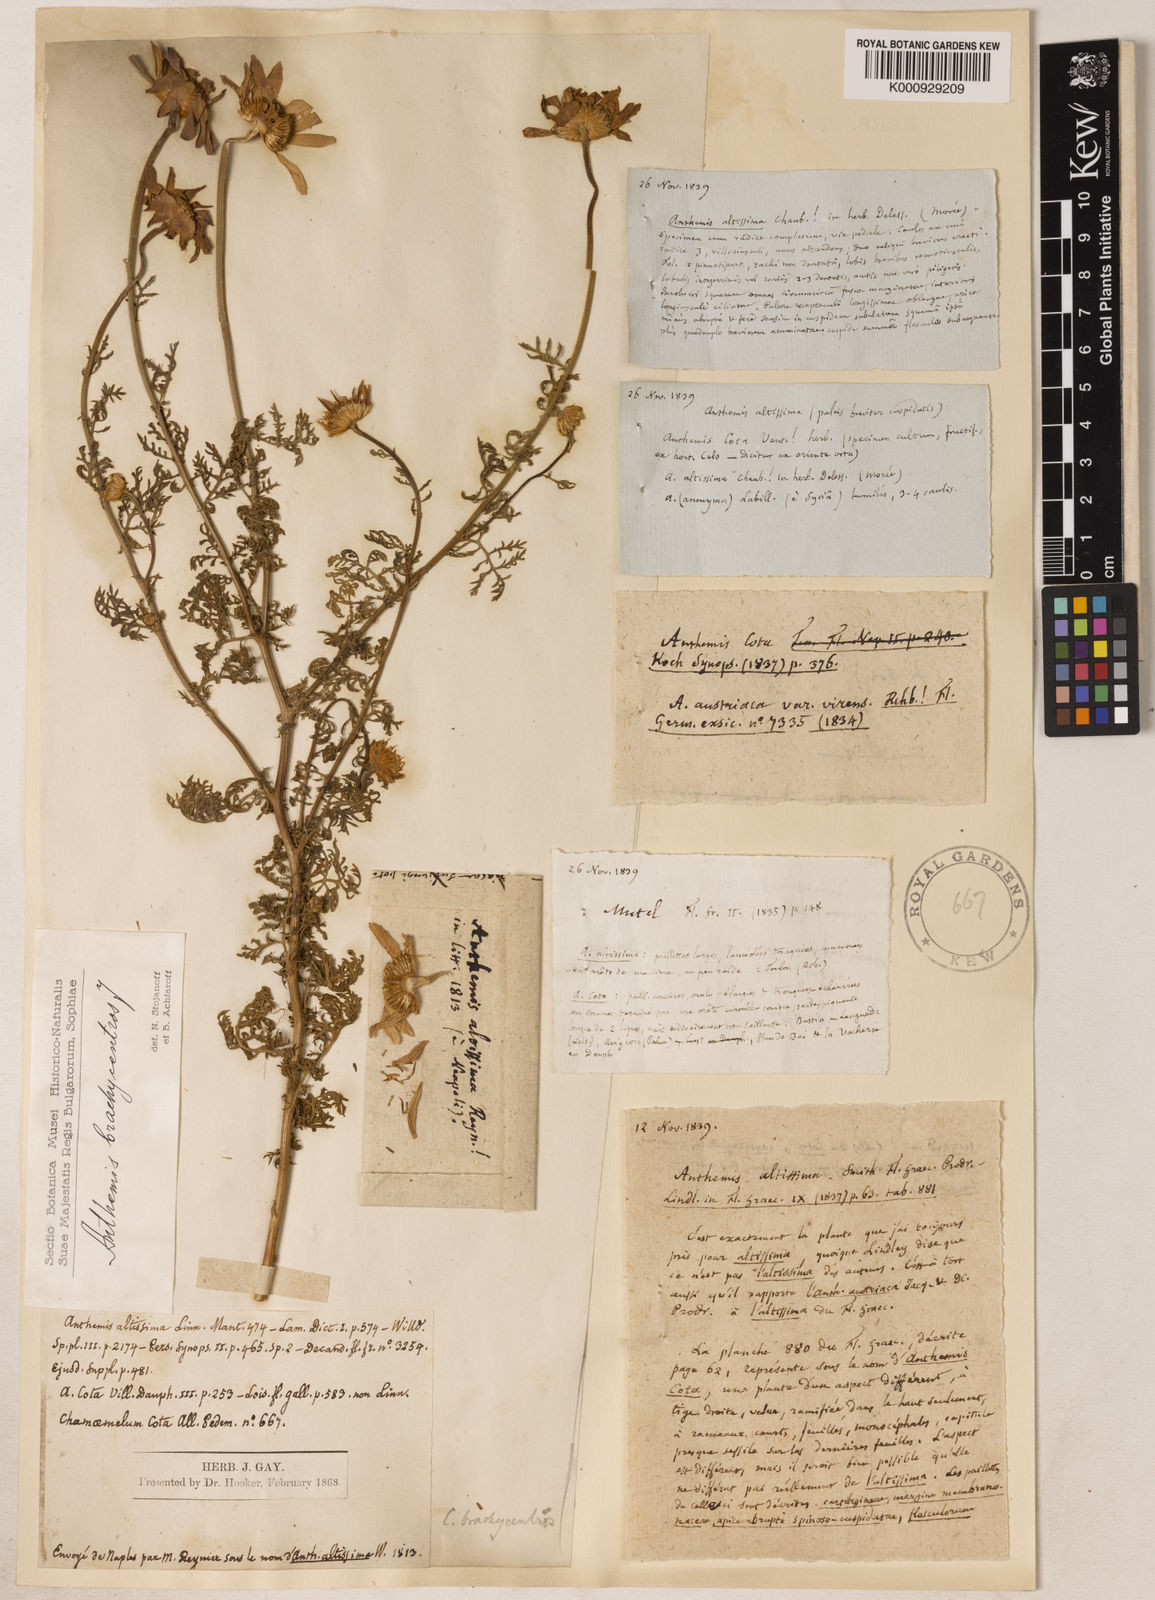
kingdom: Plantae
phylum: Tracheophyta
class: Magnoliopsida
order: Asterales
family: Asteraceae
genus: Cota
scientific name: Cota segetalis
